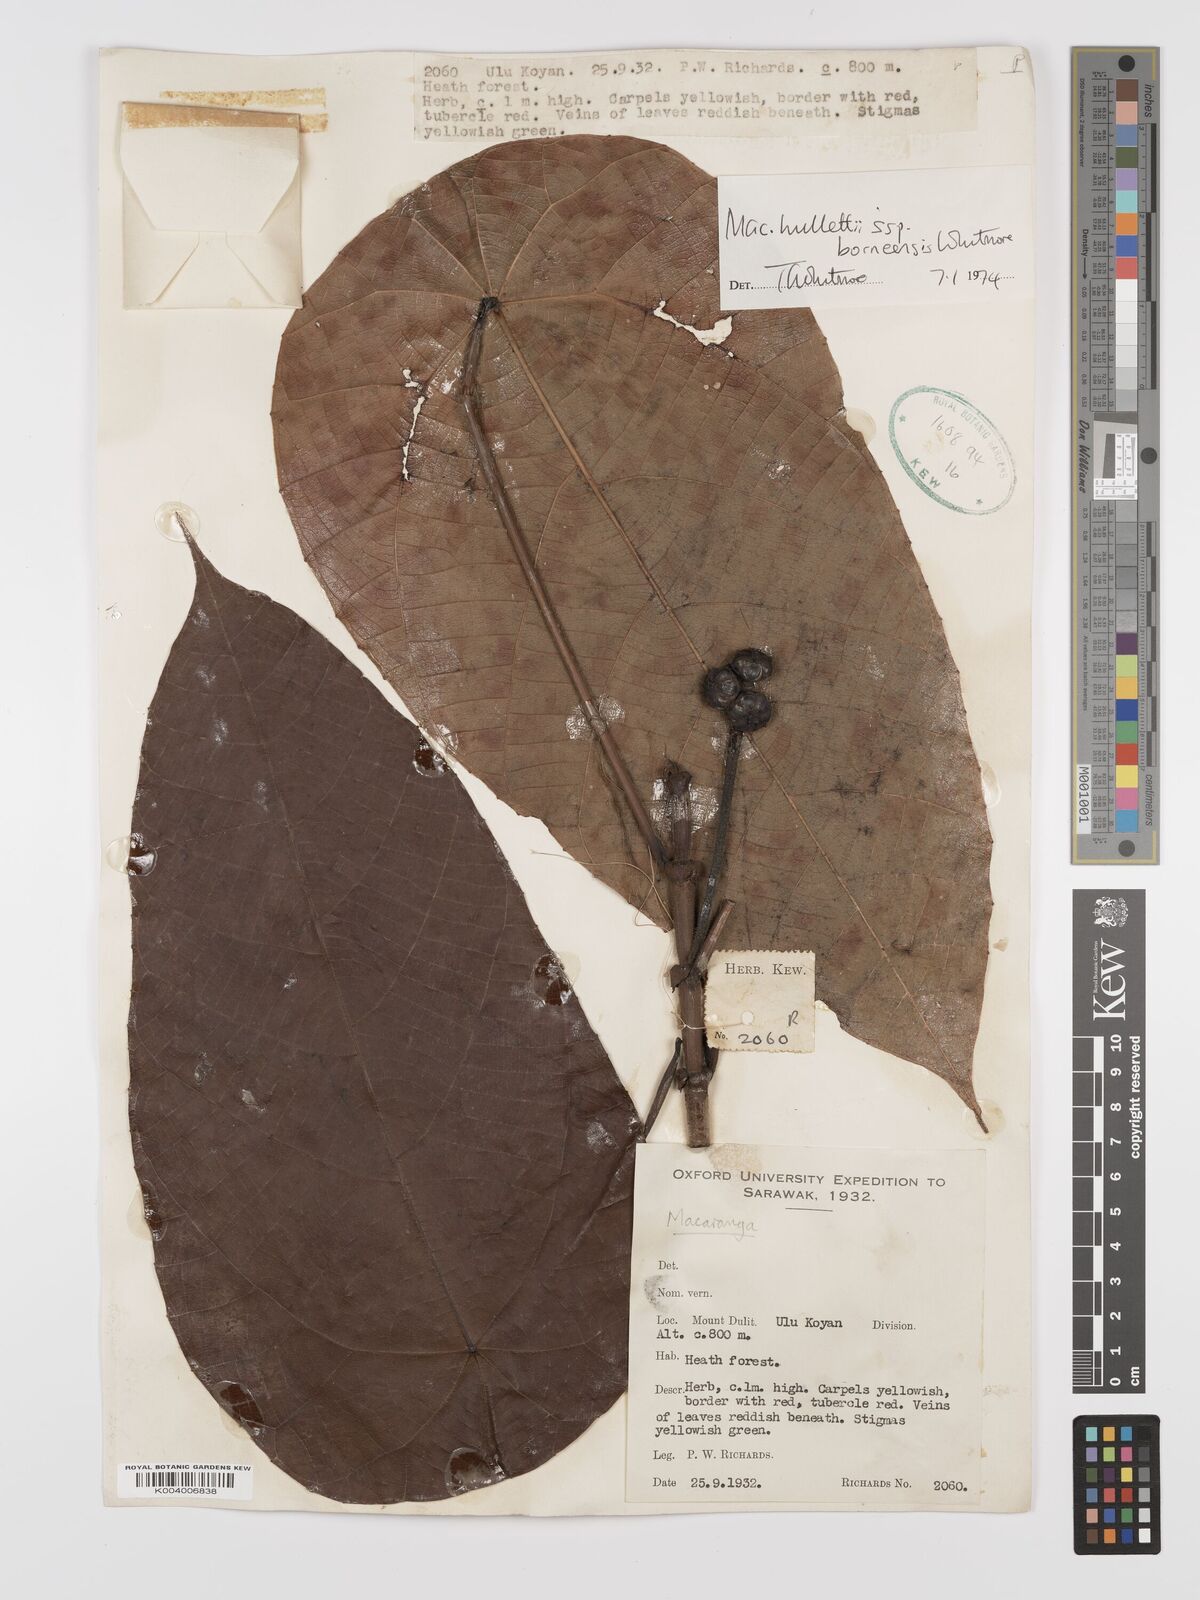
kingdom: Plantae
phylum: Tracheophyta
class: Magnoliopsida
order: Malpighiales
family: Euphorbiaceae
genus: Macaranga
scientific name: Macaranga hullettii
